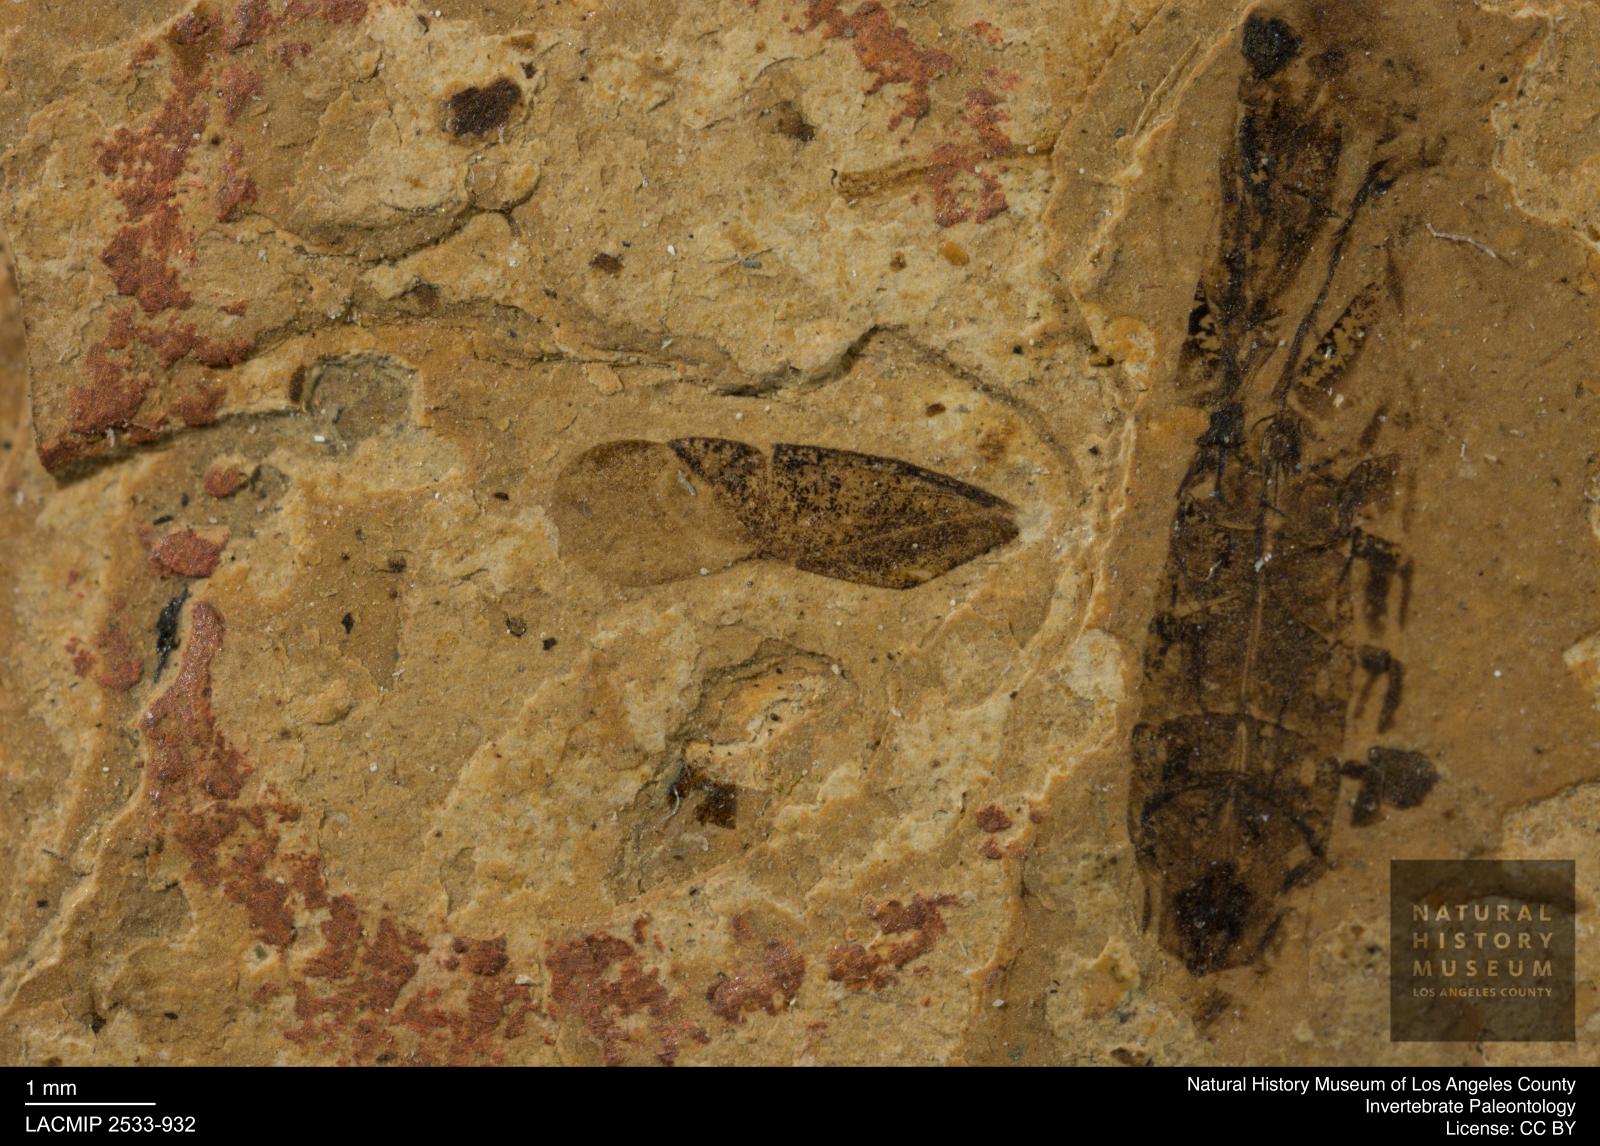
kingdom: Animalia
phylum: Arthropoda
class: Insecta
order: Hemiptera
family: Miridae
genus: Heterocordylus
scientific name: Heterocordylus
